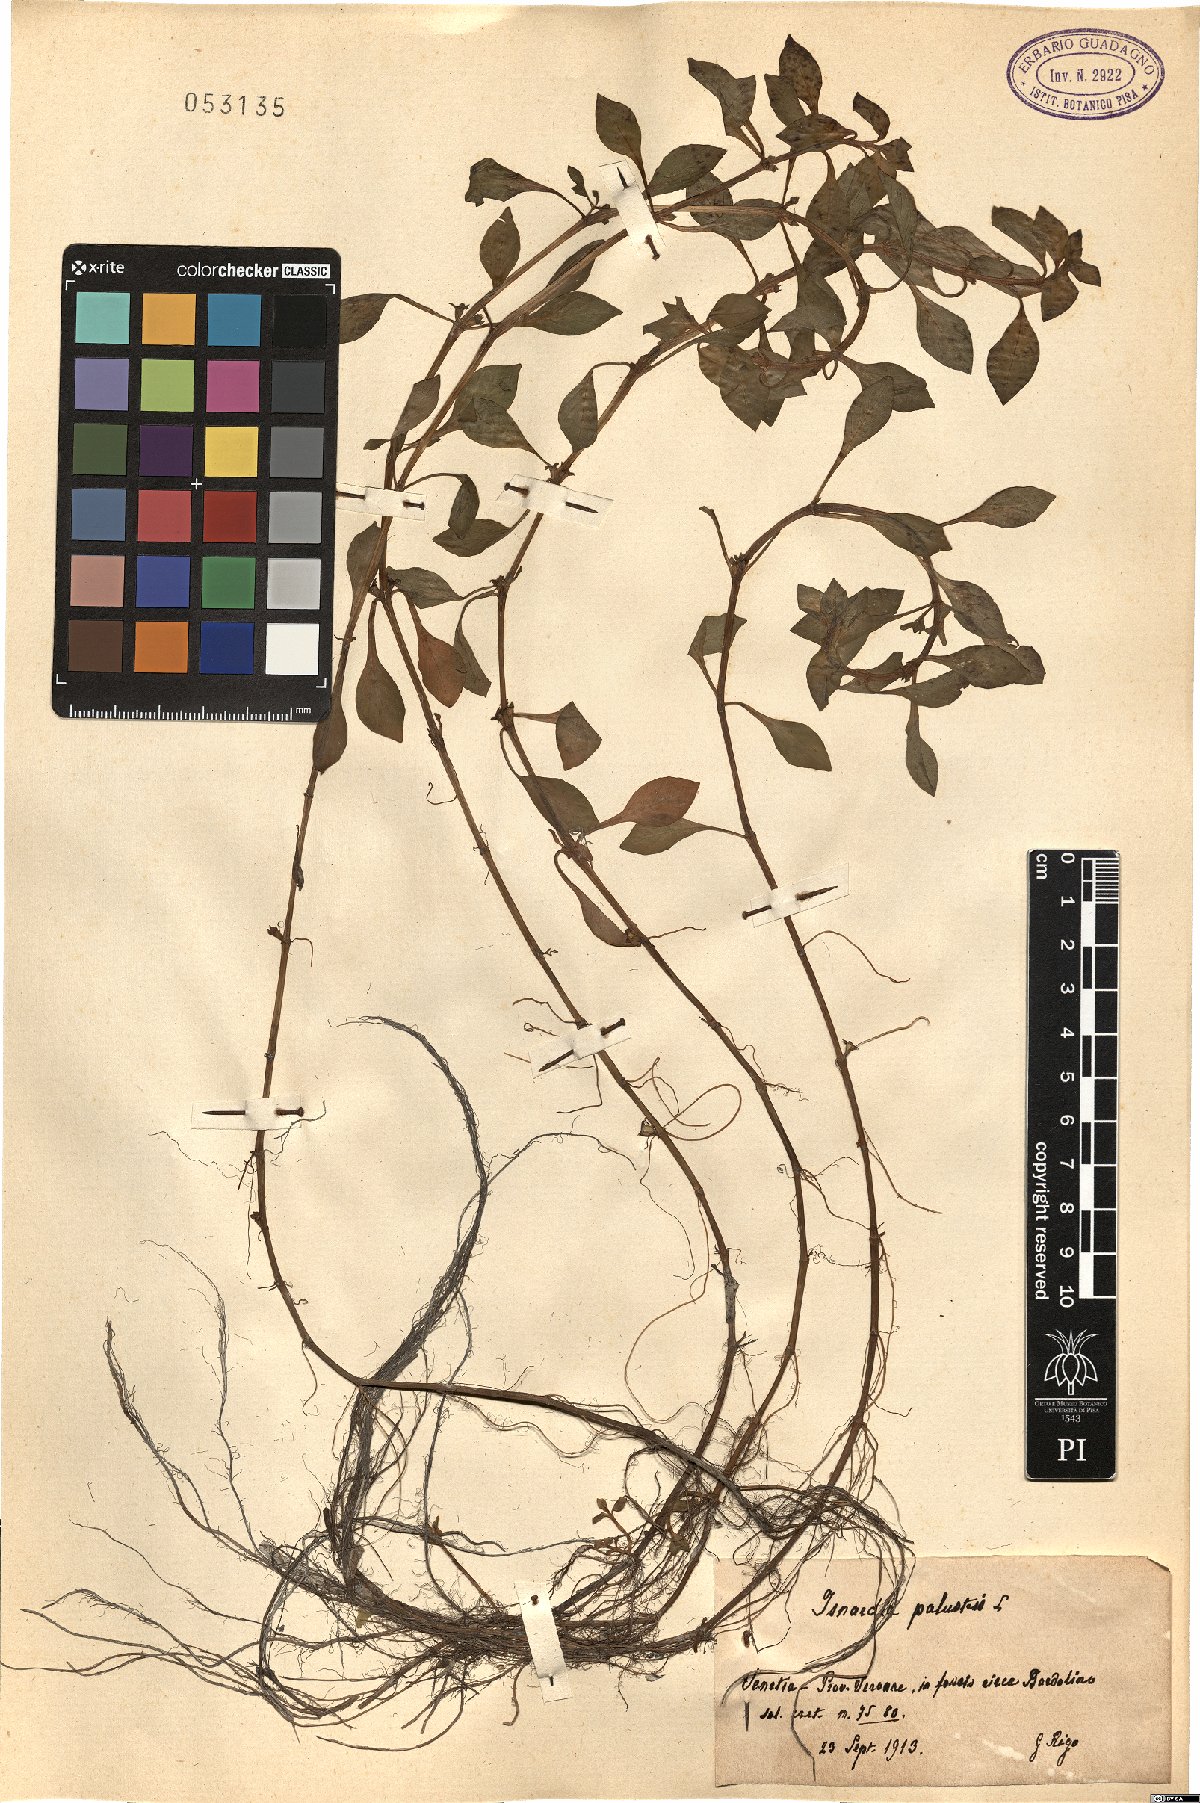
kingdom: Plantae
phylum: Tracheophyta
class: Magnoliopsida
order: Myrtales
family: Onagraceae
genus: Ludwigia
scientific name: Ludwigia palustris
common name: Hampshire-purslane
